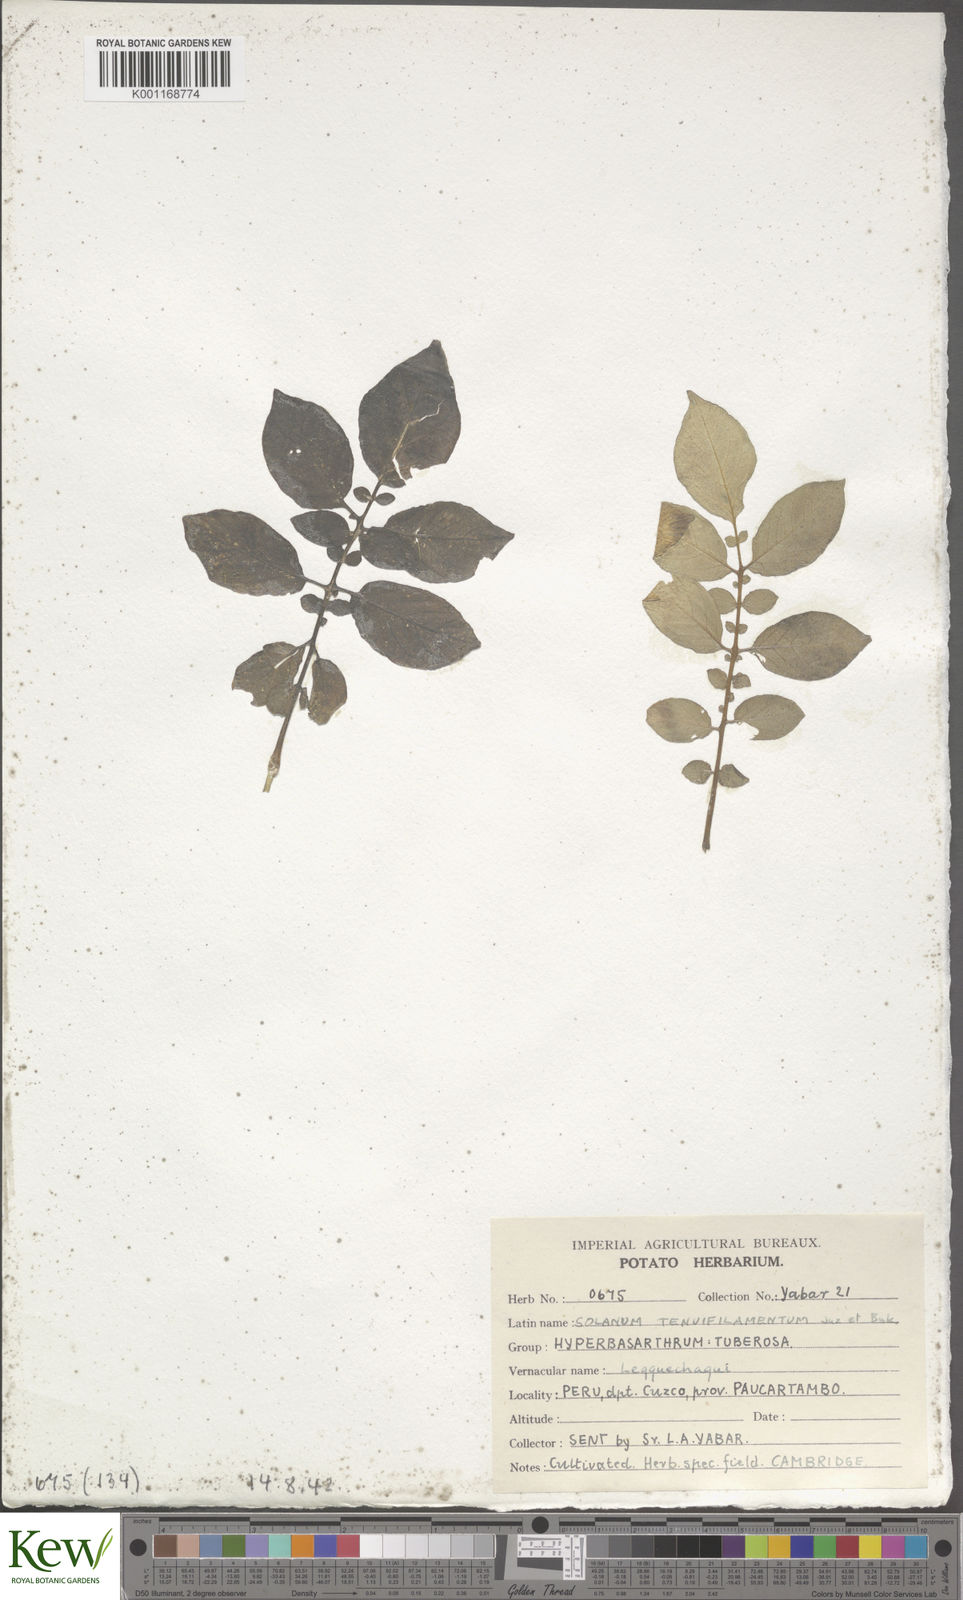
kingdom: Plantae
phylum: Tracheophyta
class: Magnoliopsida
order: Solanales
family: Solanaceae
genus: Solanum
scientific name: Solanum chaucha
